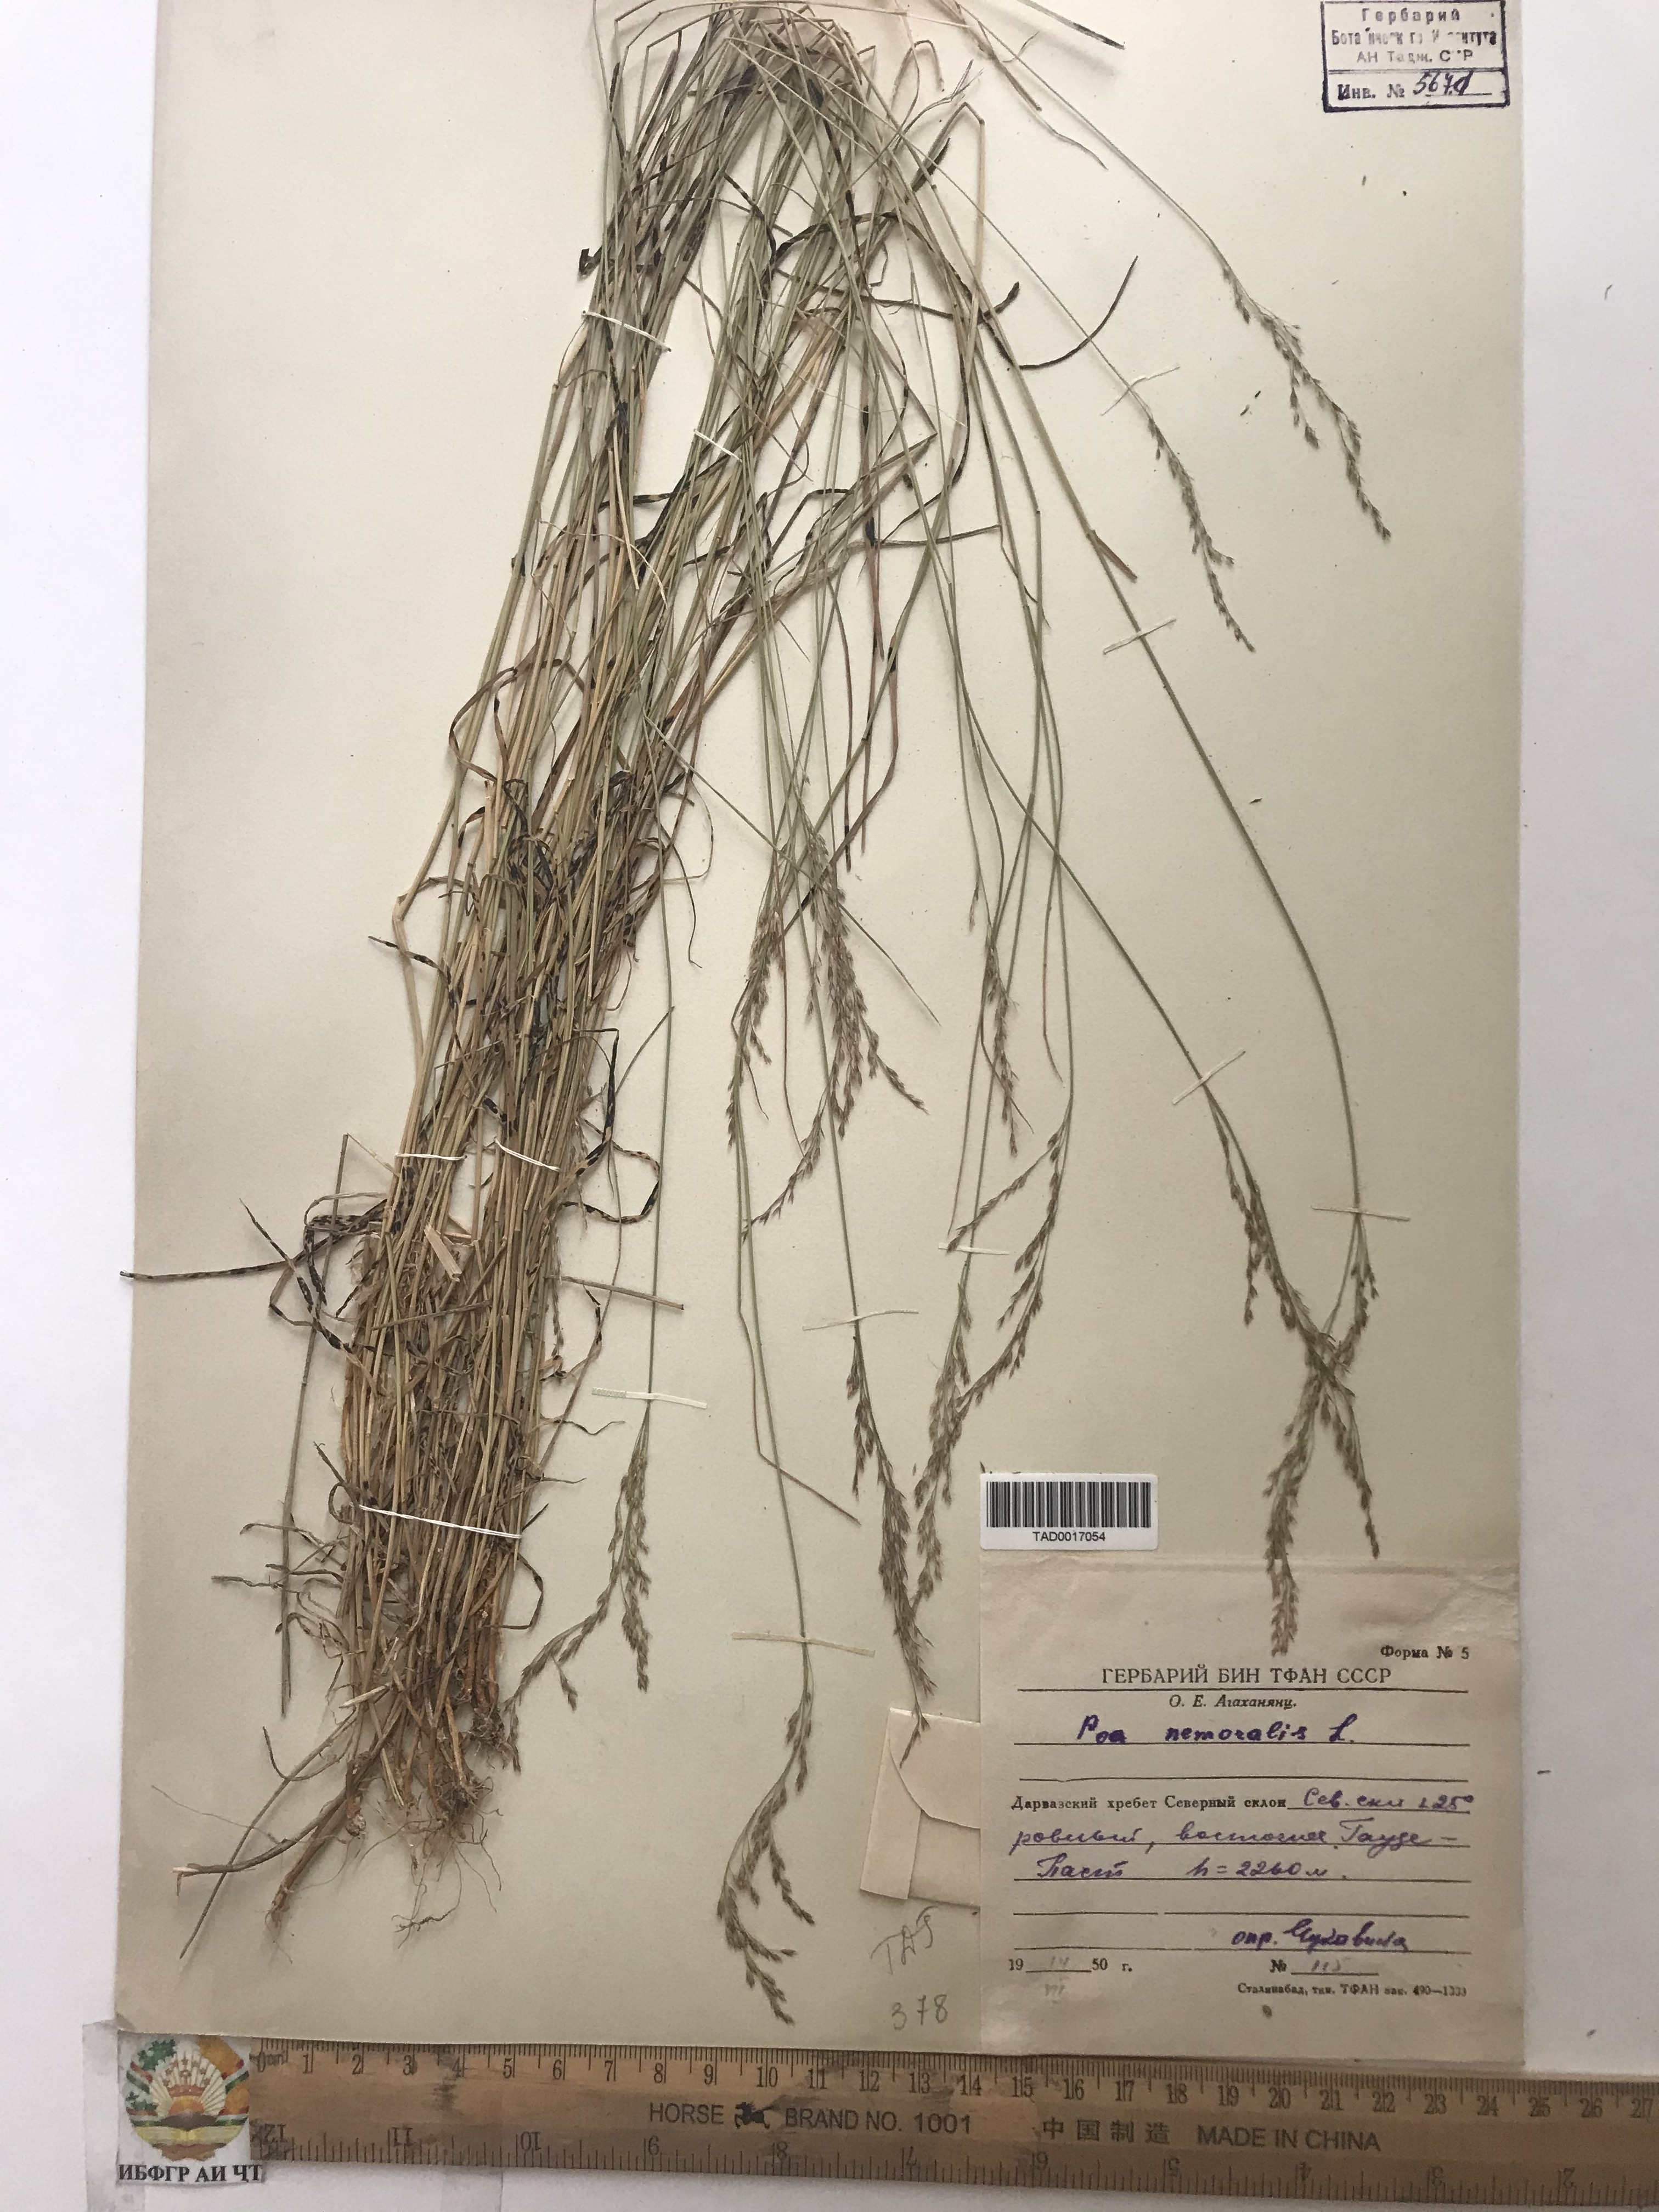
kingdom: Plantae
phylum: Tracheophyta
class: Liliopsida
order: Poales
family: Poaceae
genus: Poa
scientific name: Poa nemoralis
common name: Wood bluegrass
